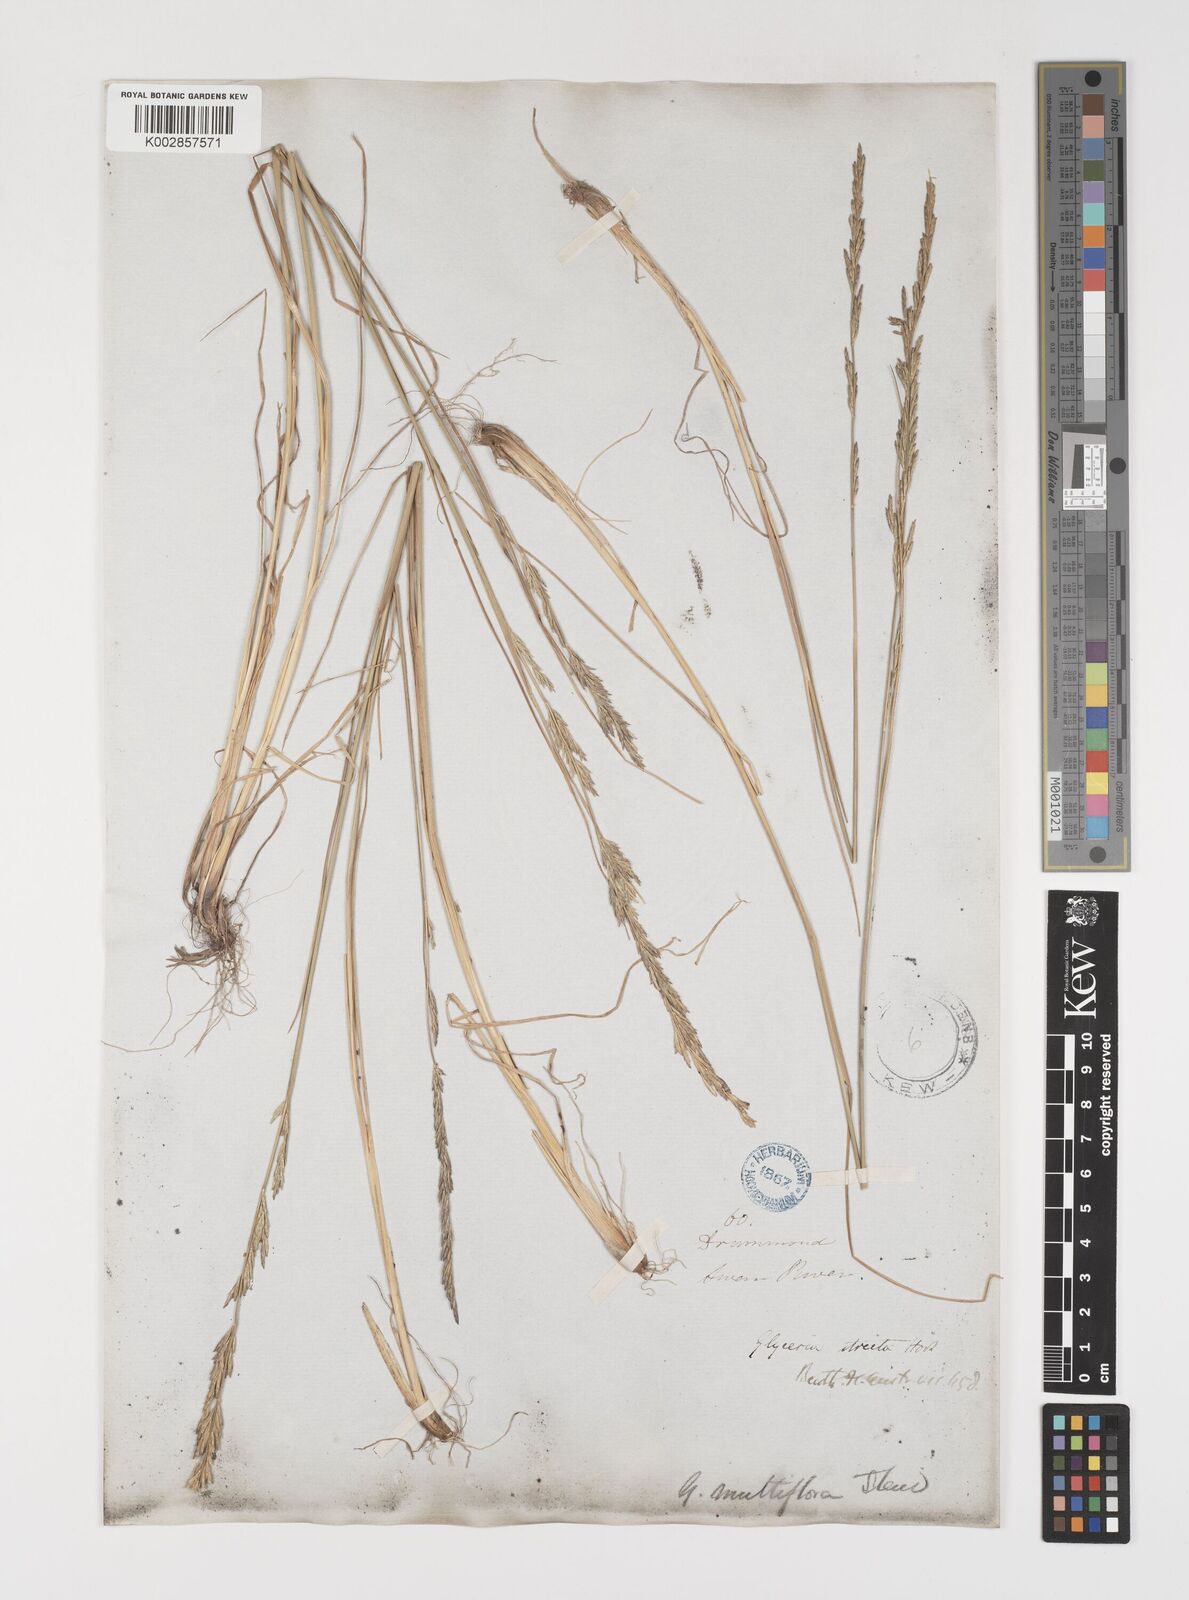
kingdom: Plantae
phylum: Tracheophyta
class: Liliopsida
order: Poales
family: Poaceae
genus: Puccinellia
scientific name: Puccinellia stricta
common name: Australian saltmarsh grass
